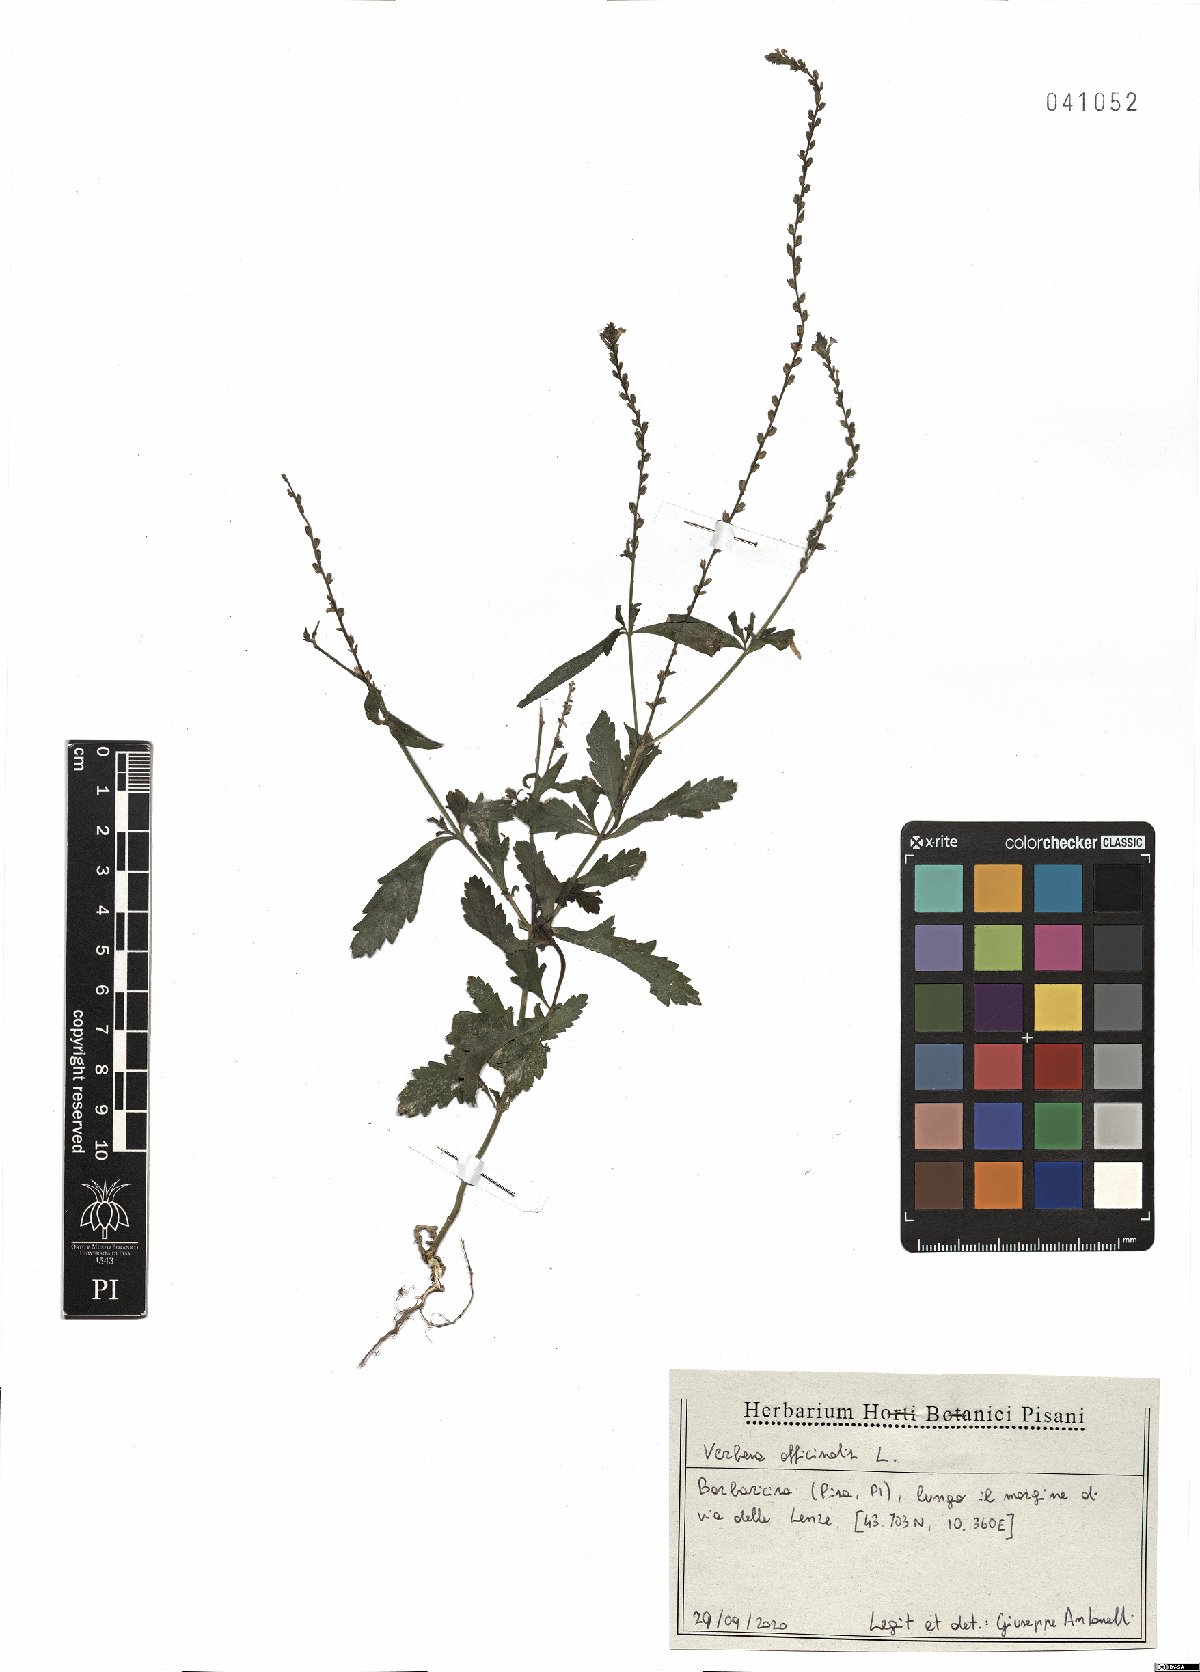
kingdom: Plantae
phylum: Tracheophyta
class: Magnoliopsida
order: Lamiales
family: Verbenaceae
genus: Verbena
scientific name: Verbena officinalis
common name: Vervain
